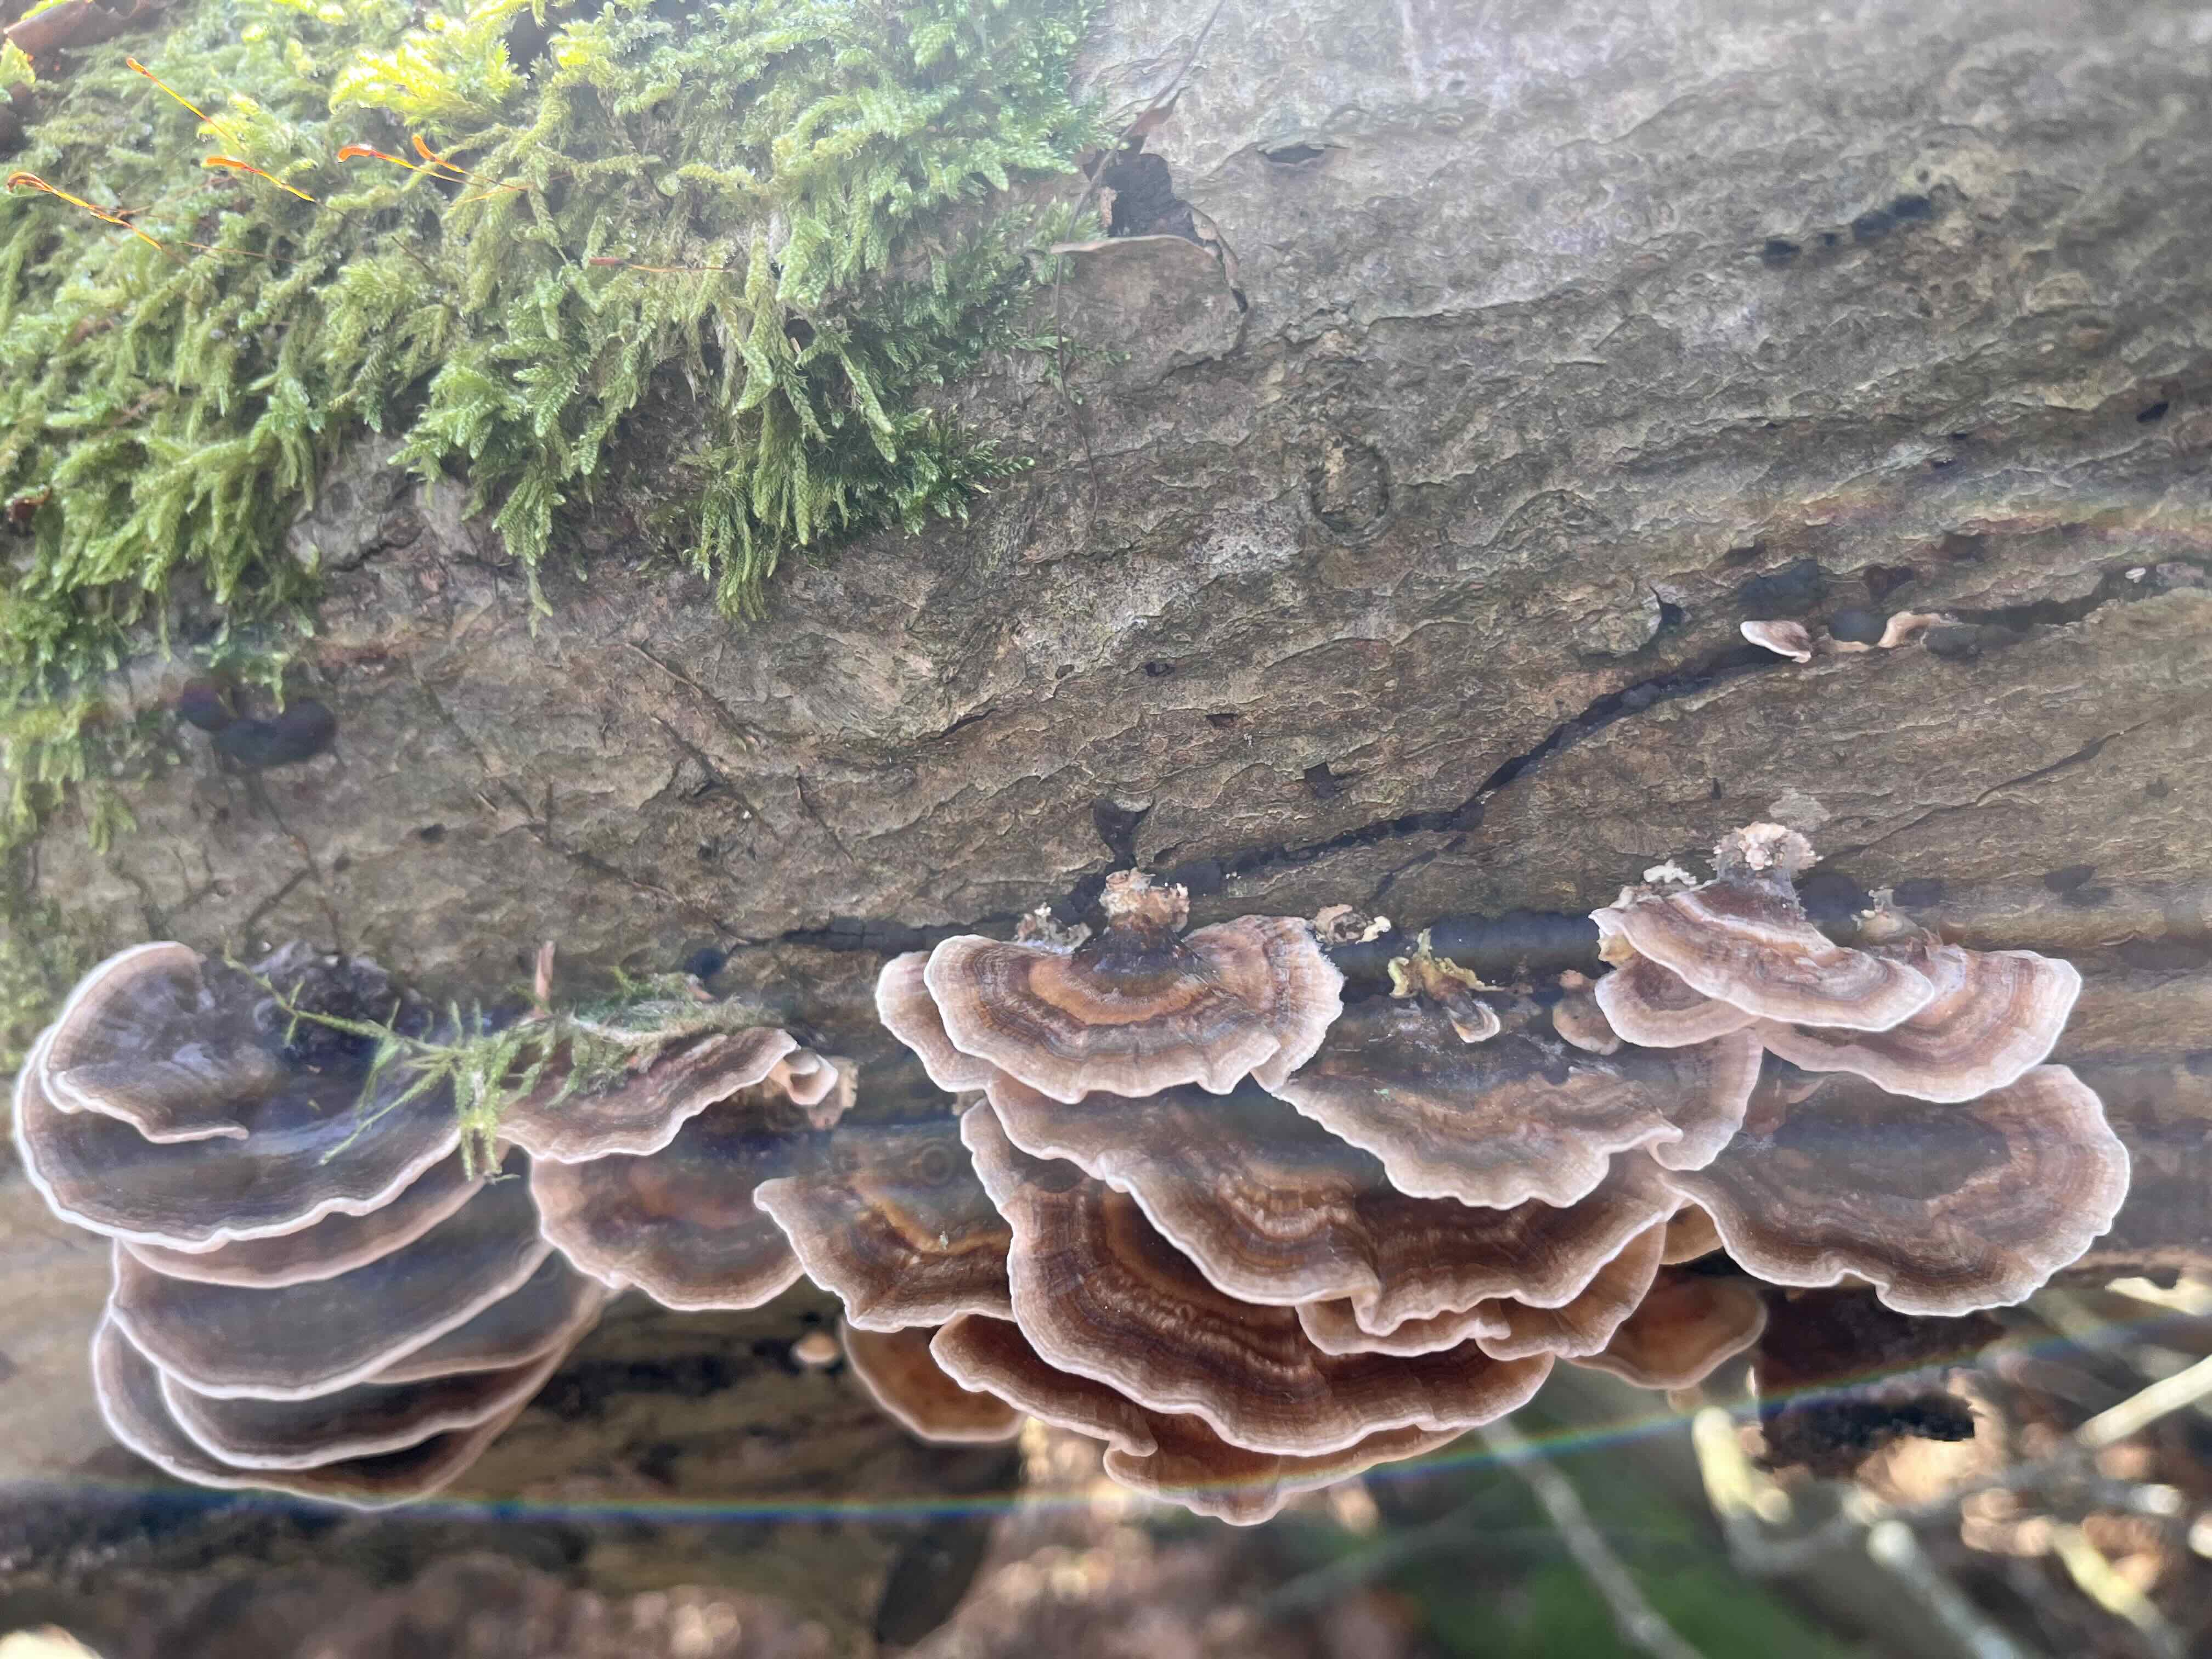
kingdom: Fungi
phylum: Basidiomycota
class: Agaricomycetes
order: Polyporales
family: Polyporaceae
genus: Trametes
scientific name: Trametes versicolor
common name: broget læderporesvamp
